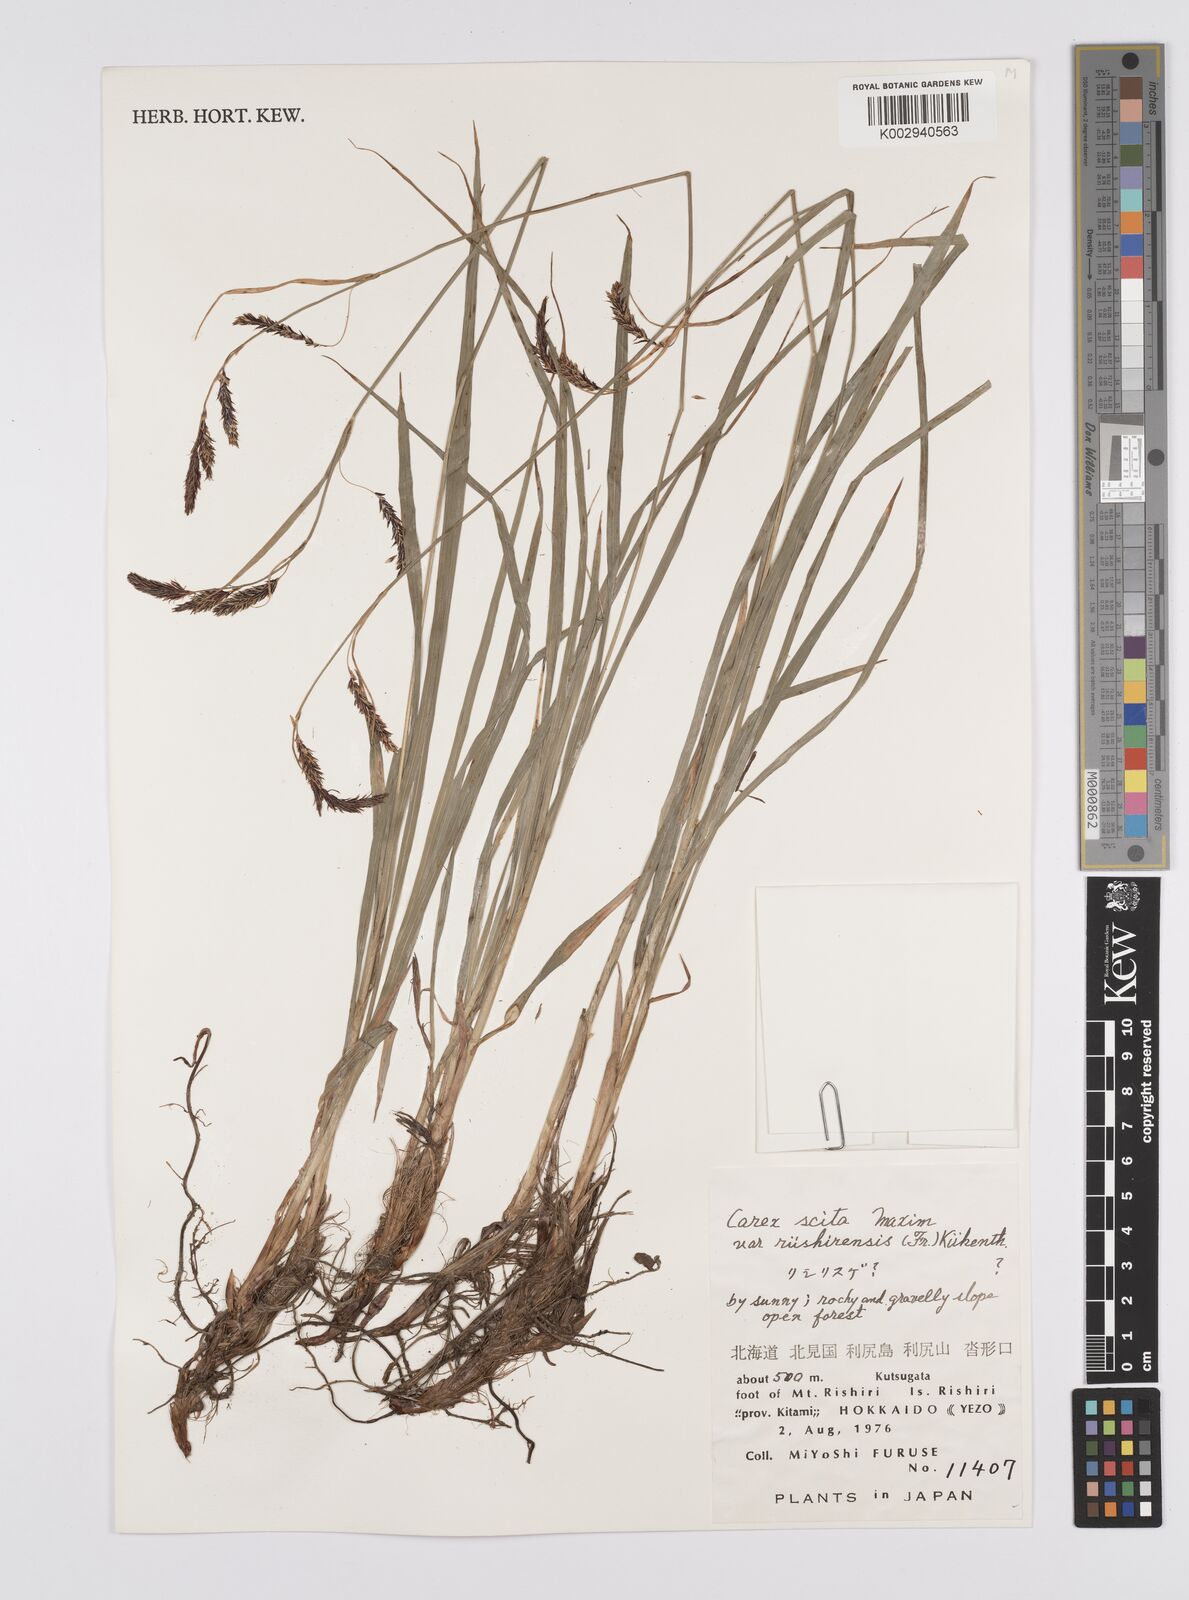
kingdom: Plantae
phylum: Tracheophyta
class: Liliopsida
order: Poales
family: Cyperaceae
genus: Carex
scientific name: Carex scita
